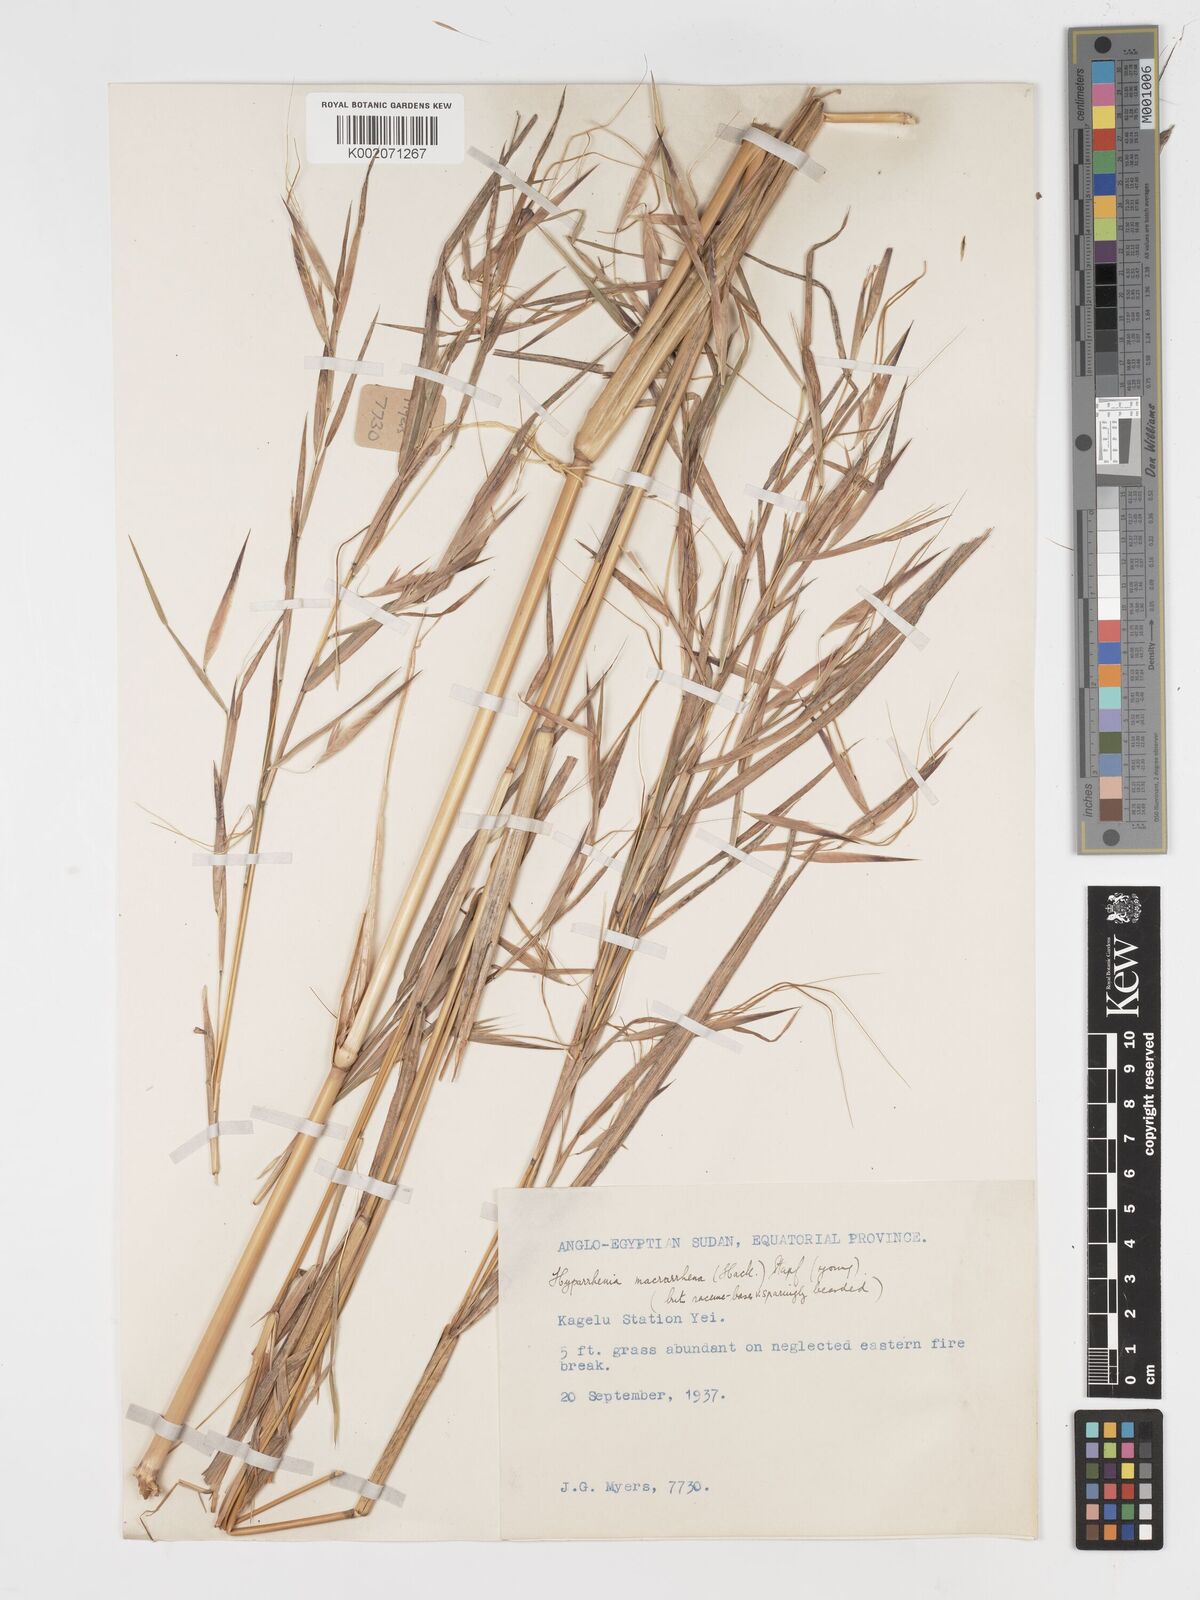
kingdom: Plantae
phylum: Tracheophyta
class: Liliopsida
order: Poales
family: Poaceae
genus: Hyparrhenia
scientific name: Hyparrhenia niariensis
